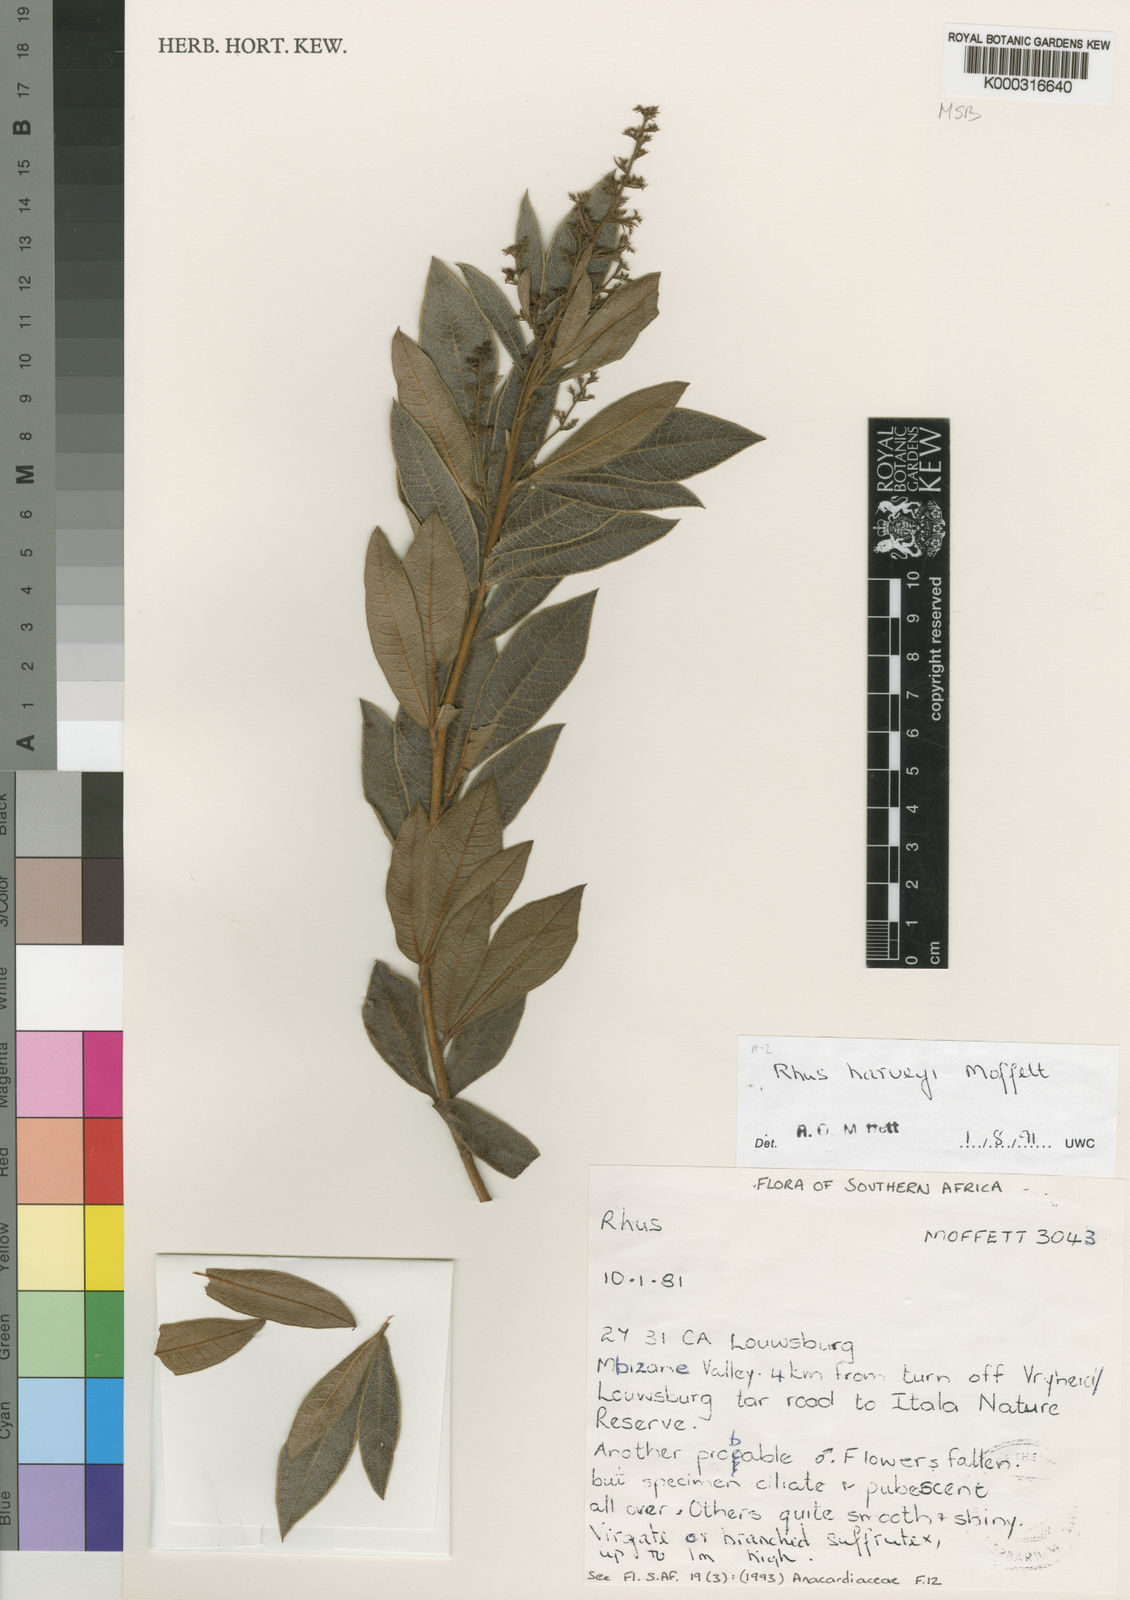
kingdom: Plantae
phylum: Tracheophyta
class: Magnoliopsida
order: Sapindales
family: Anacardiaceae
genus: Searsia
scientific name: Searsia harveyi
